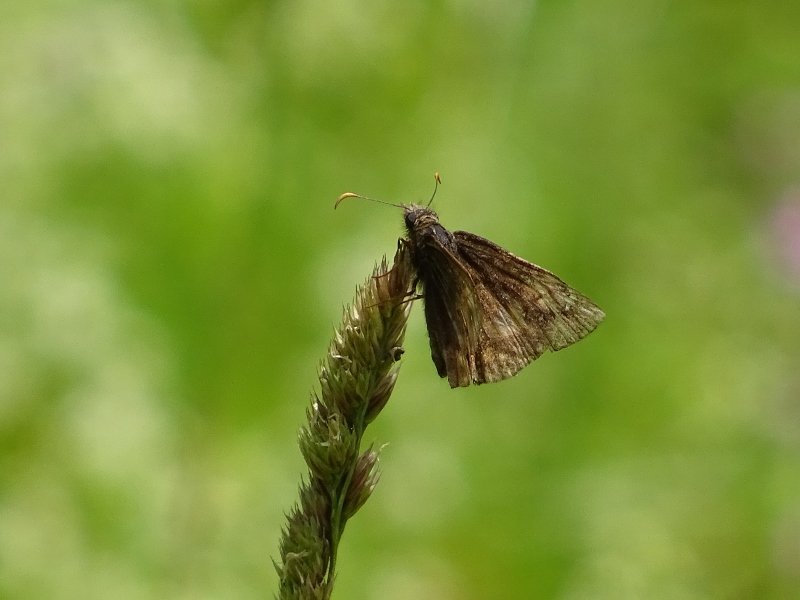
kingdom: Animalia
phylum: Arthropoda
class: Insecta
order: Lepidoptera
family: Hesperiidae
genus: Erynnis
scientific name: Erynnis
